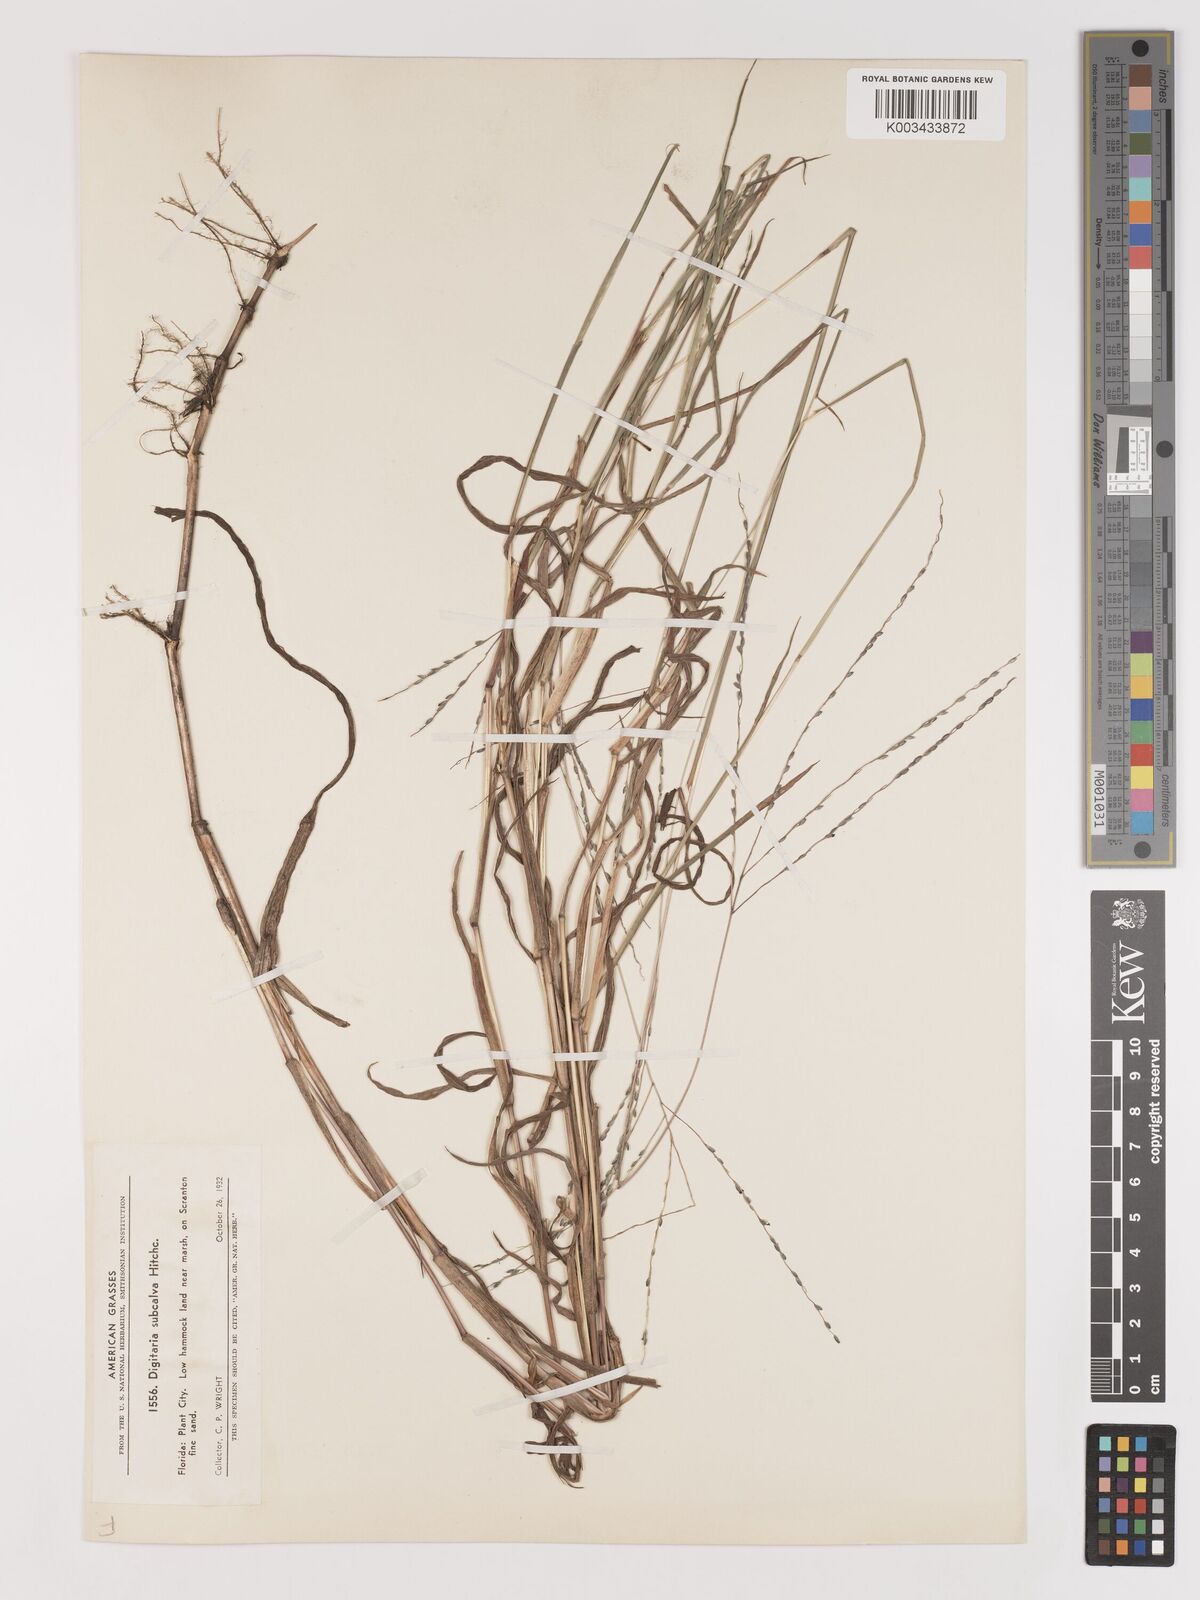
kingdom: Plantae
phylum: Tracheophyta
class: Liliopsida
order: Poales
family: Poaceae
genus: Digitaria
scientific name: Digitaria texana
